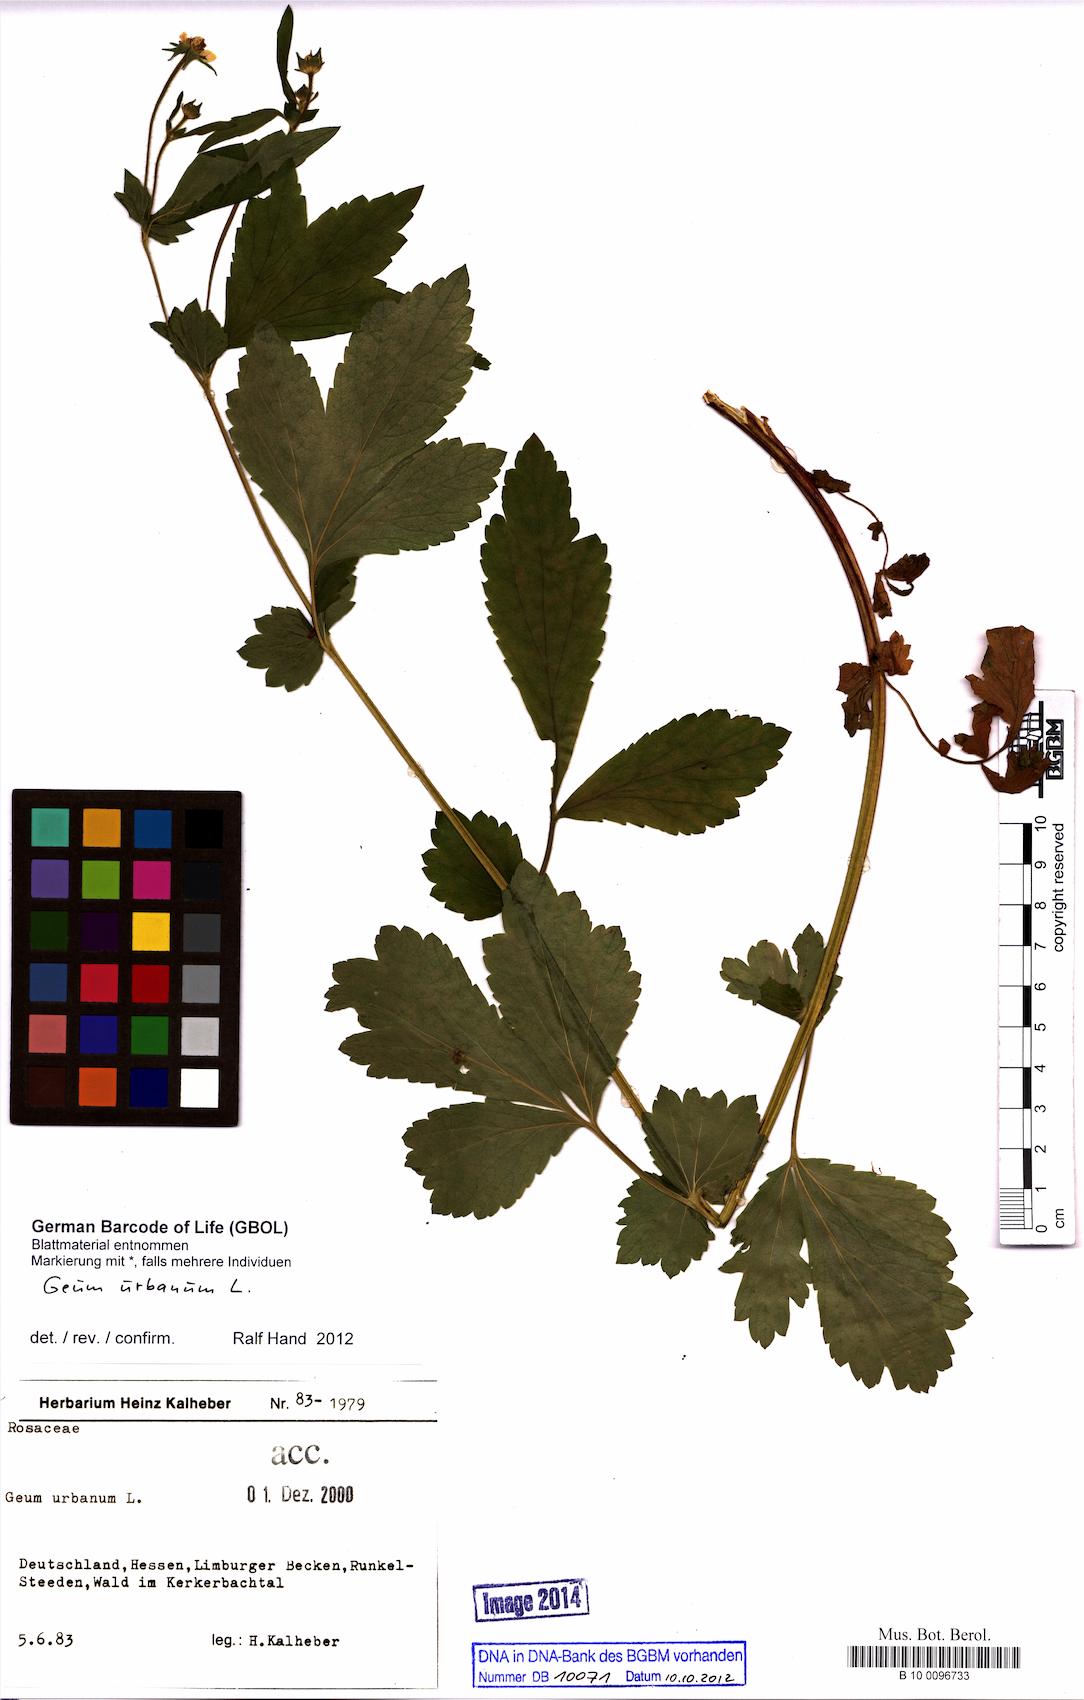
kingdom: Plantae
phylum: Tracheophyta
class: Magnoliopsida
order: Rosales
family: Rosaceae
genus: Geum
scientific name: Geum urbanum
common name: Wood avens
